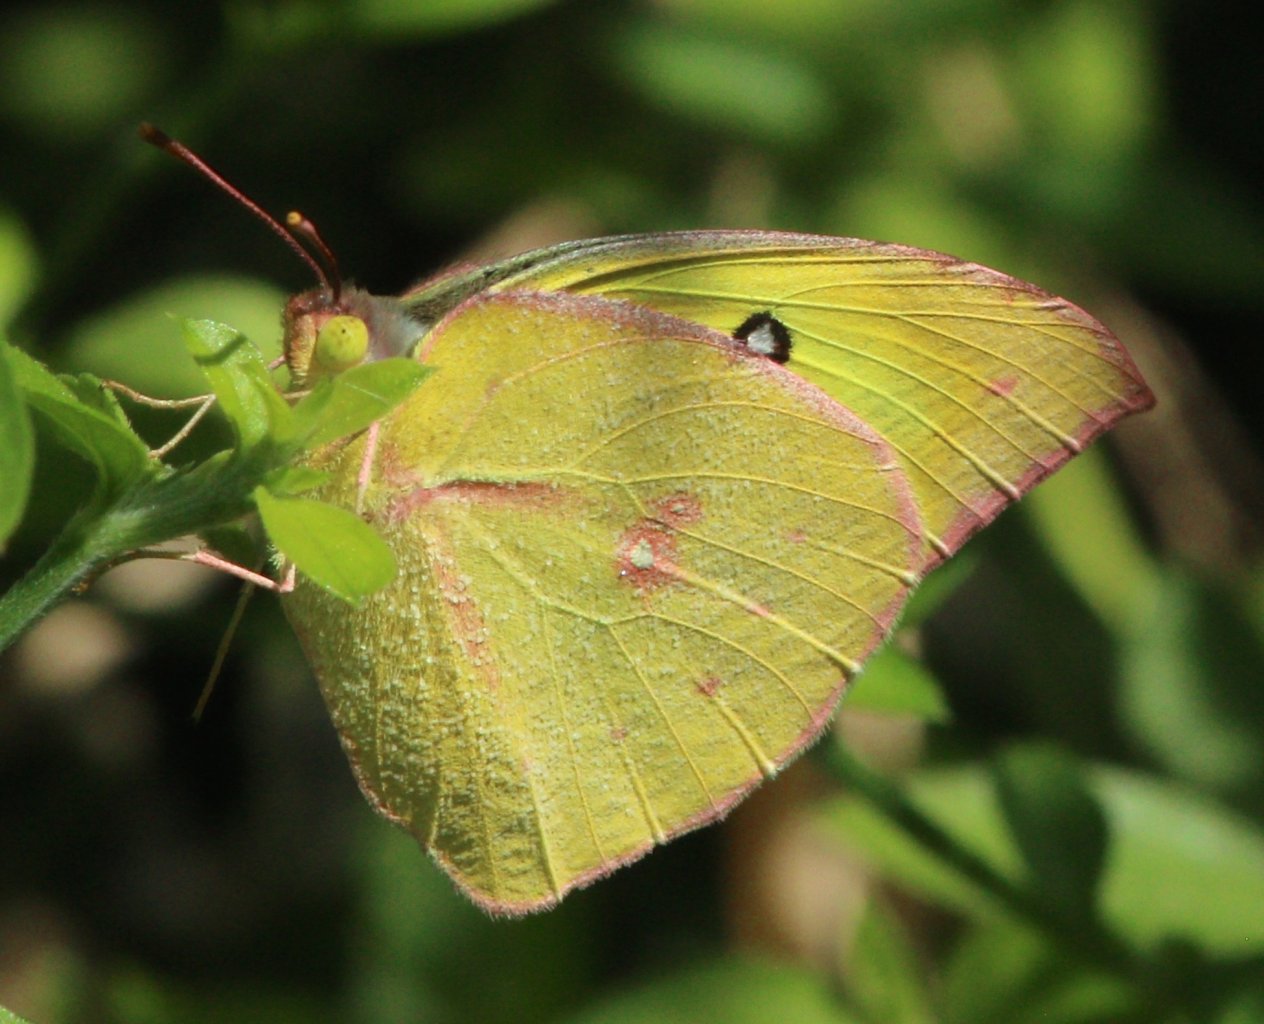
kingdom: Animalia
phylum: Arthropoda
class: Insecta
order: Lepidoptera
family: Pieridae
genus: Zerene
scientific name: Zerene cesonia
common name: Southern Dogface
